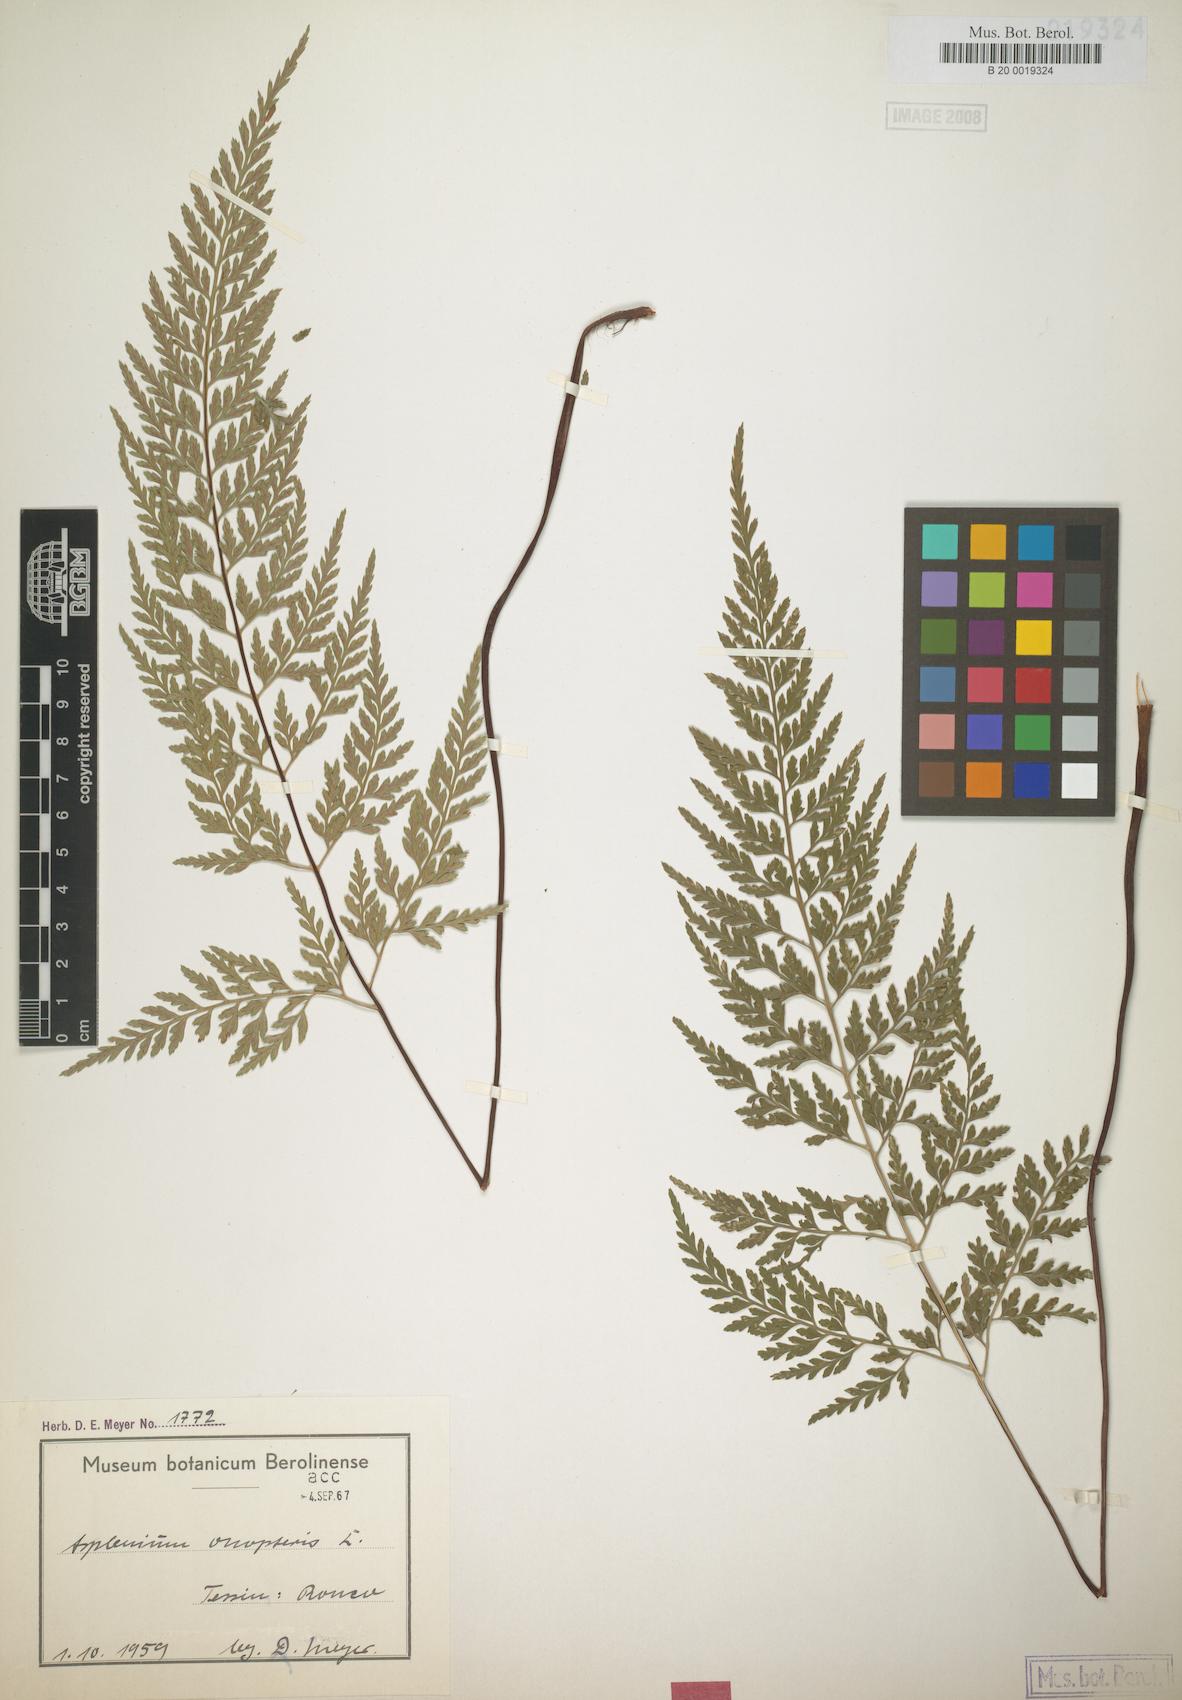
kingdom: Plantae
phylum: Tracheophyta
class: Polypodiopsida
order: Polypodiales
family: Aspleniaceae
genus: Asplenium
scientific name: Asplenium onopteris
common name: Irish spleenwort
